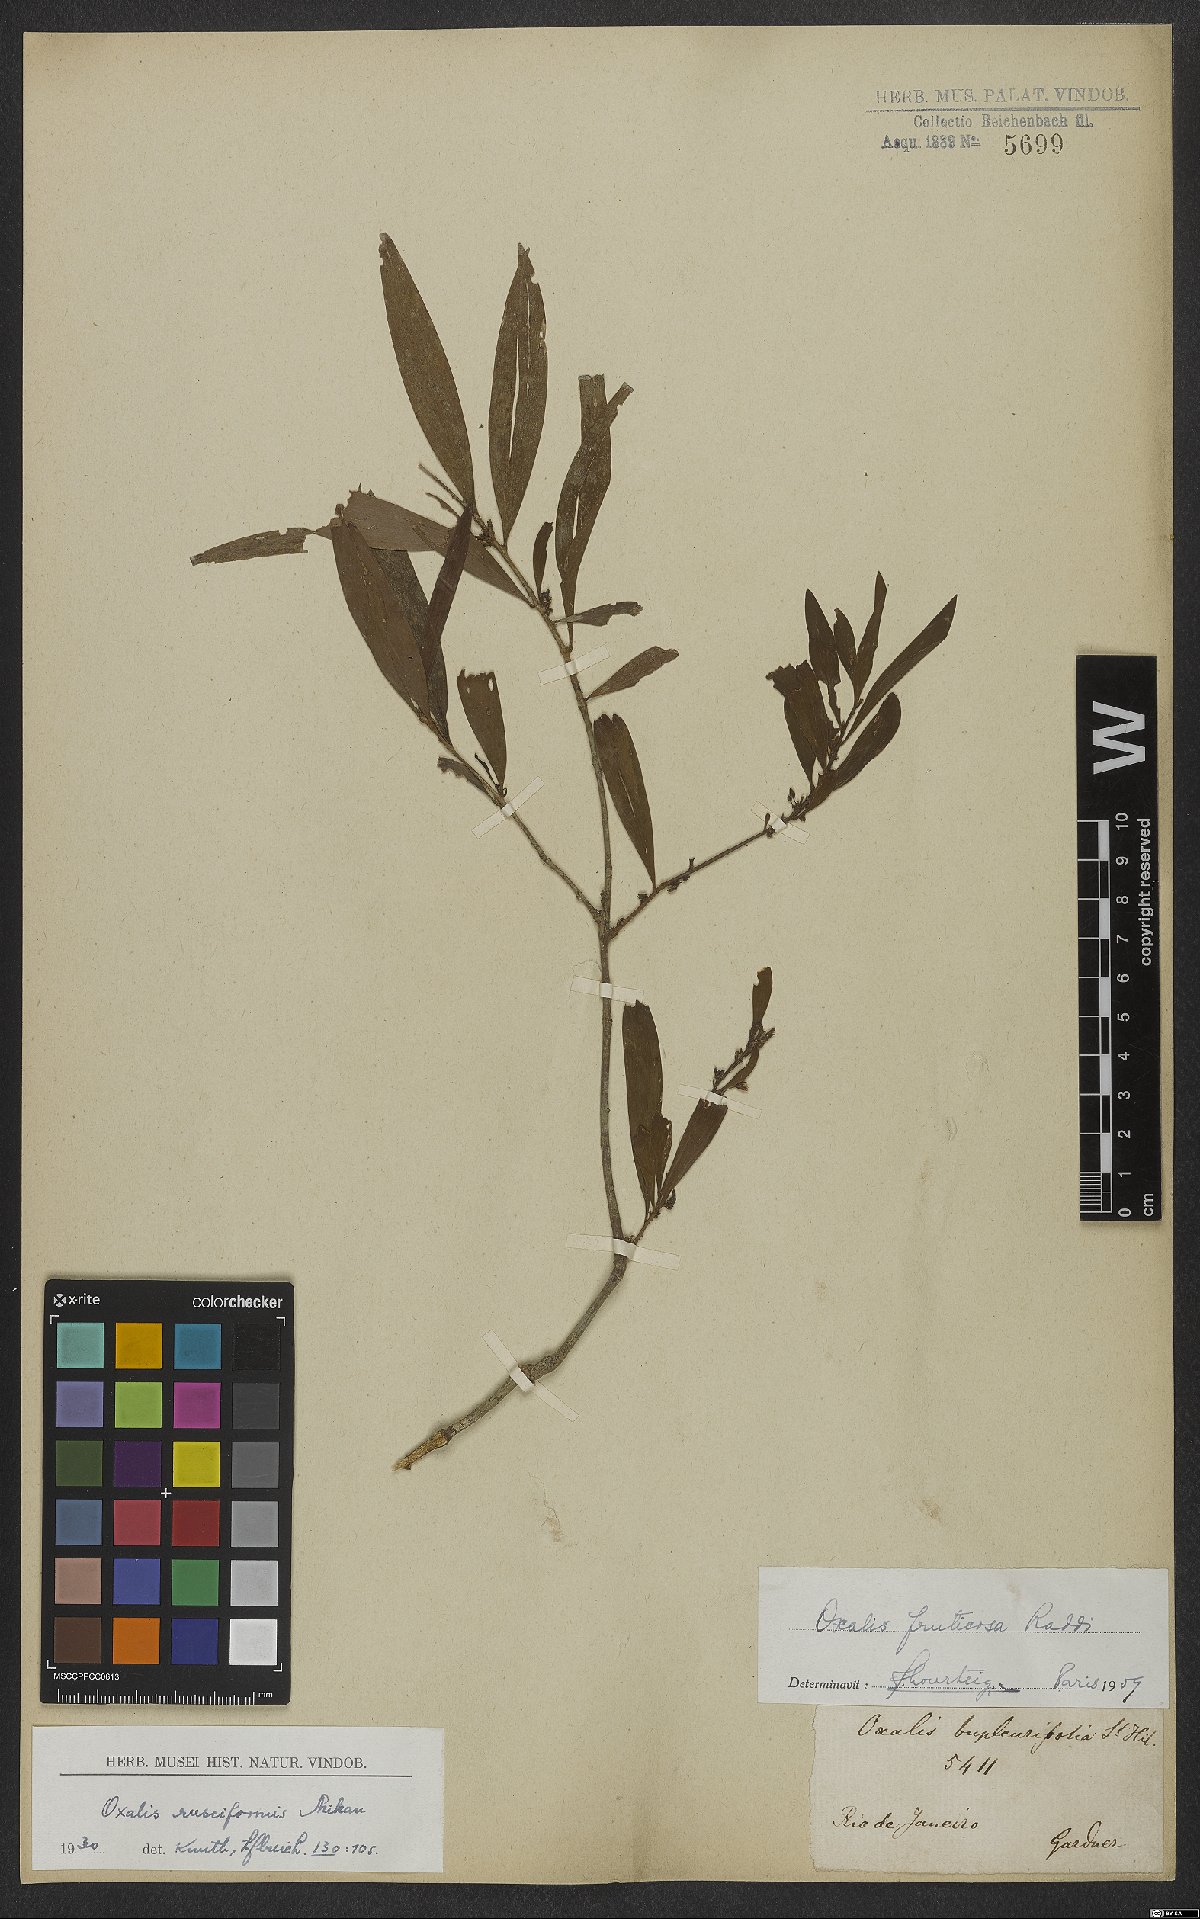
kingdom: Plantae
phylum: Tracheophyta
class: Magnoliopsida
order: Oxalidales
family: Oxalidaceae
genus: Oxalis
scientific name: Oxalis fruticosa
